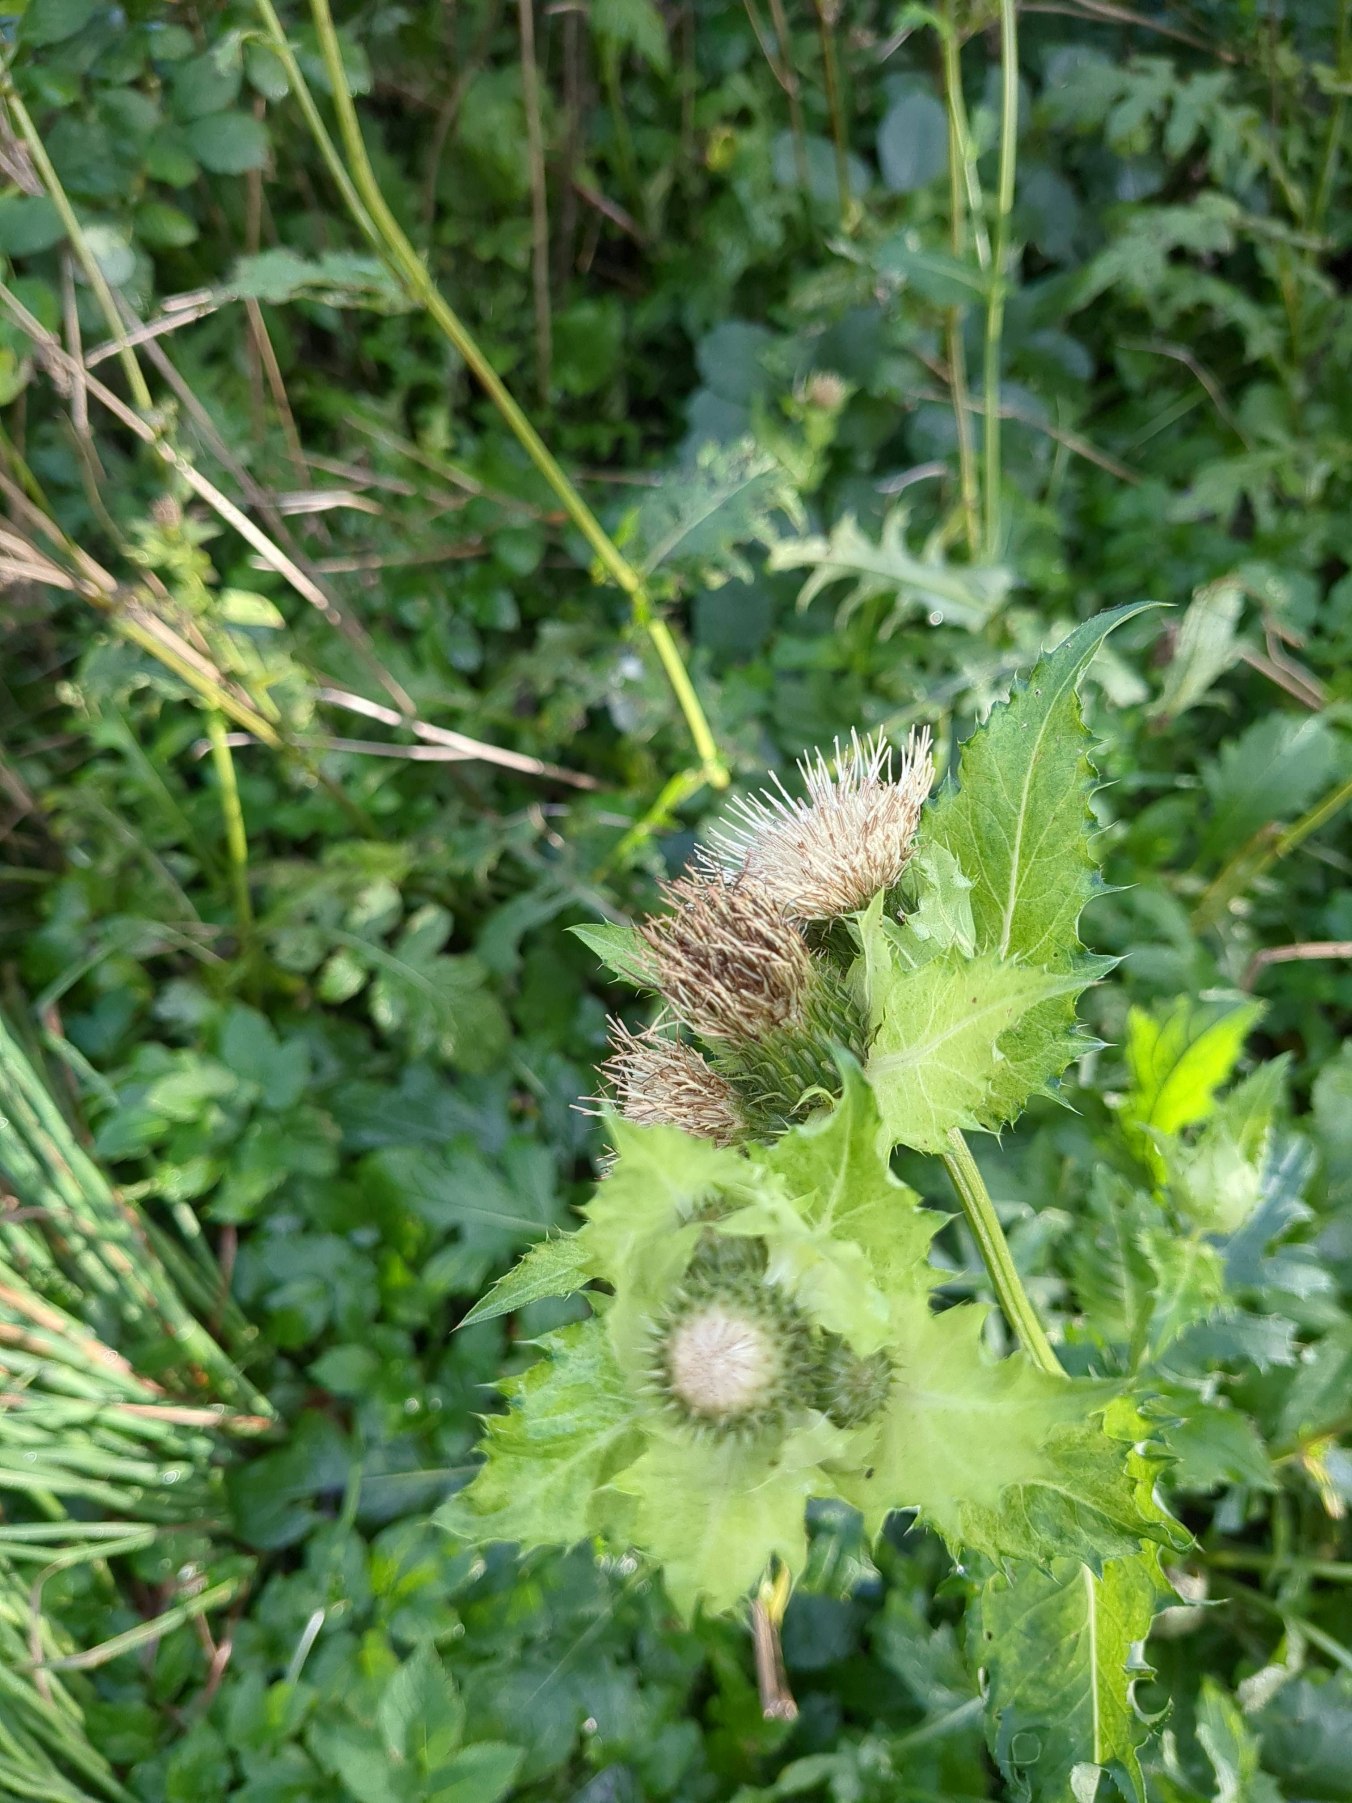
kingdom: Plantae
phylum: Tracheophyta
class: Magnoliopsida
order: Asterales
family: Asteraceae
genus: Cirsium
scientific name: Cirsium oleraceum
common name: Kål-tidsel
